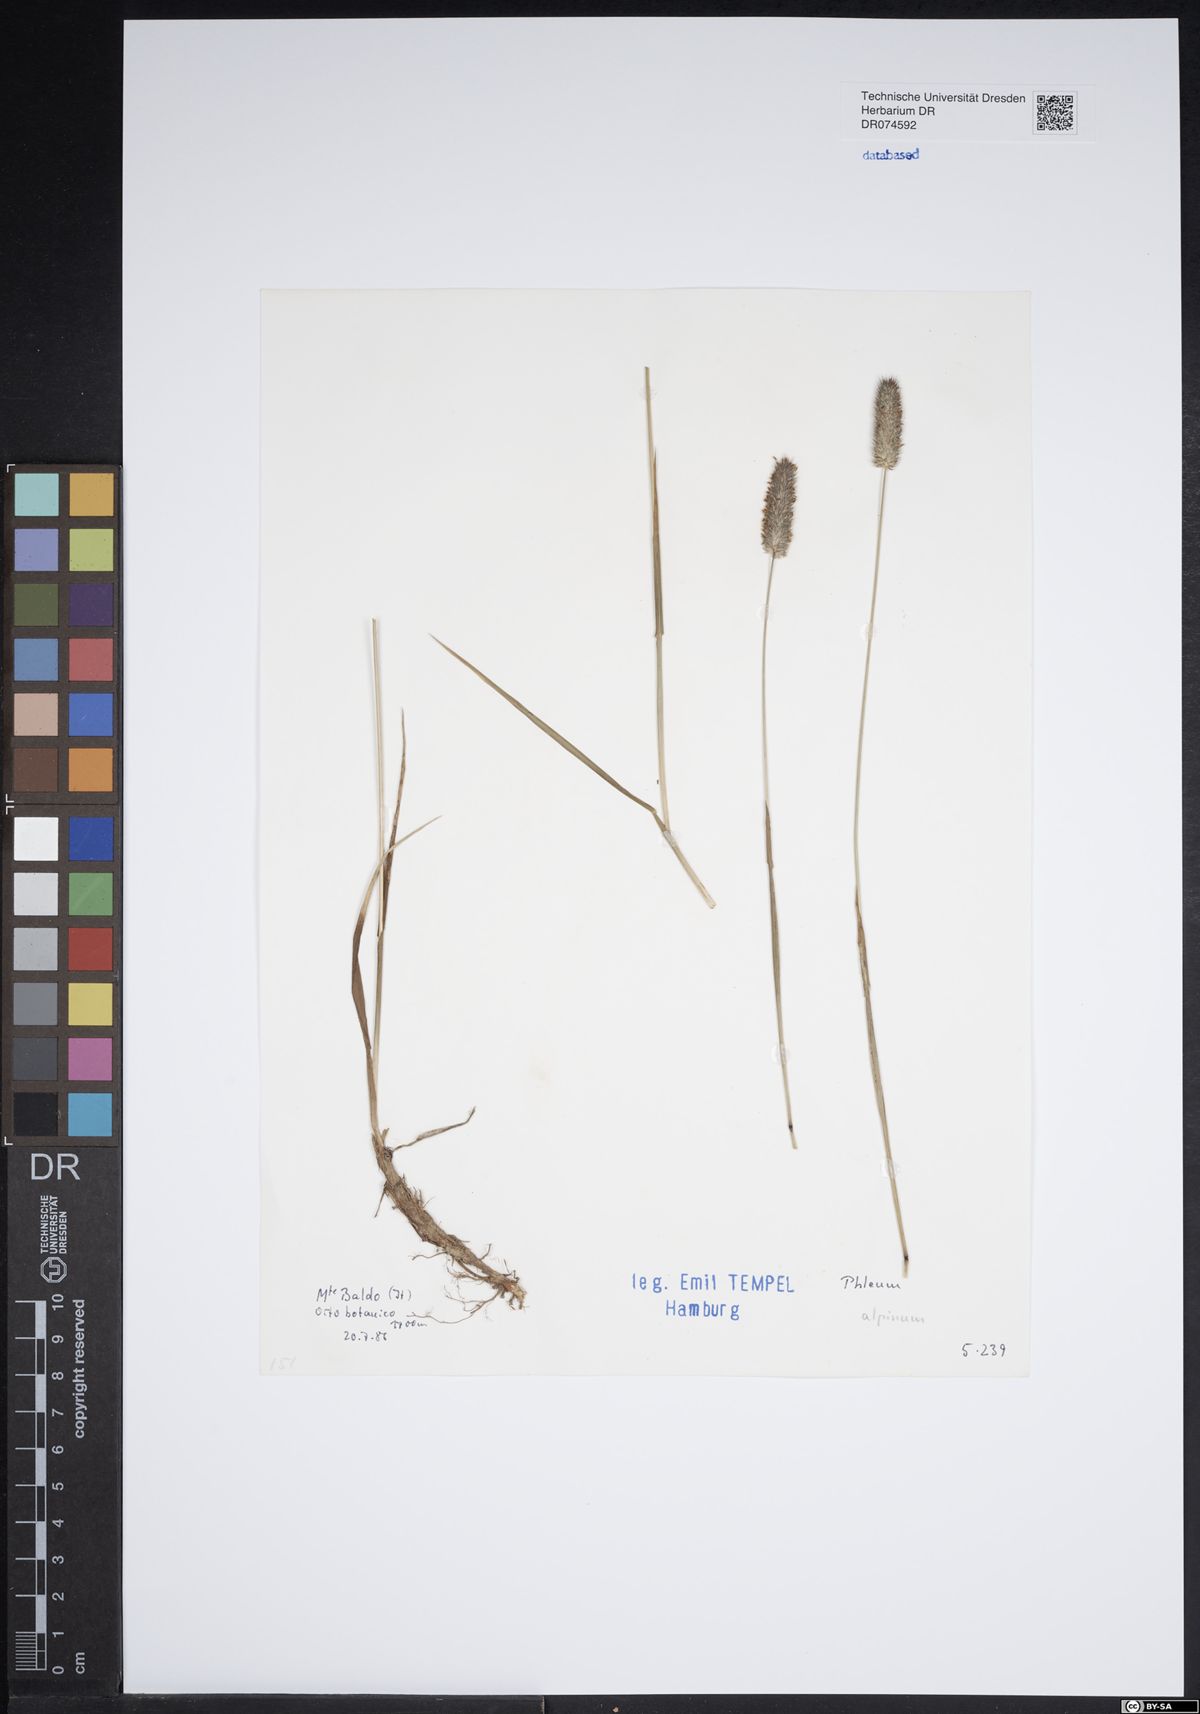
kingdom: Plantae
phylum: Tracheophyta
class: Liliopsida
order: Poales
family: Poaceae
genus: Phleum
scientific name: Phleum alpinum
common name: Alpine cat's-tail
